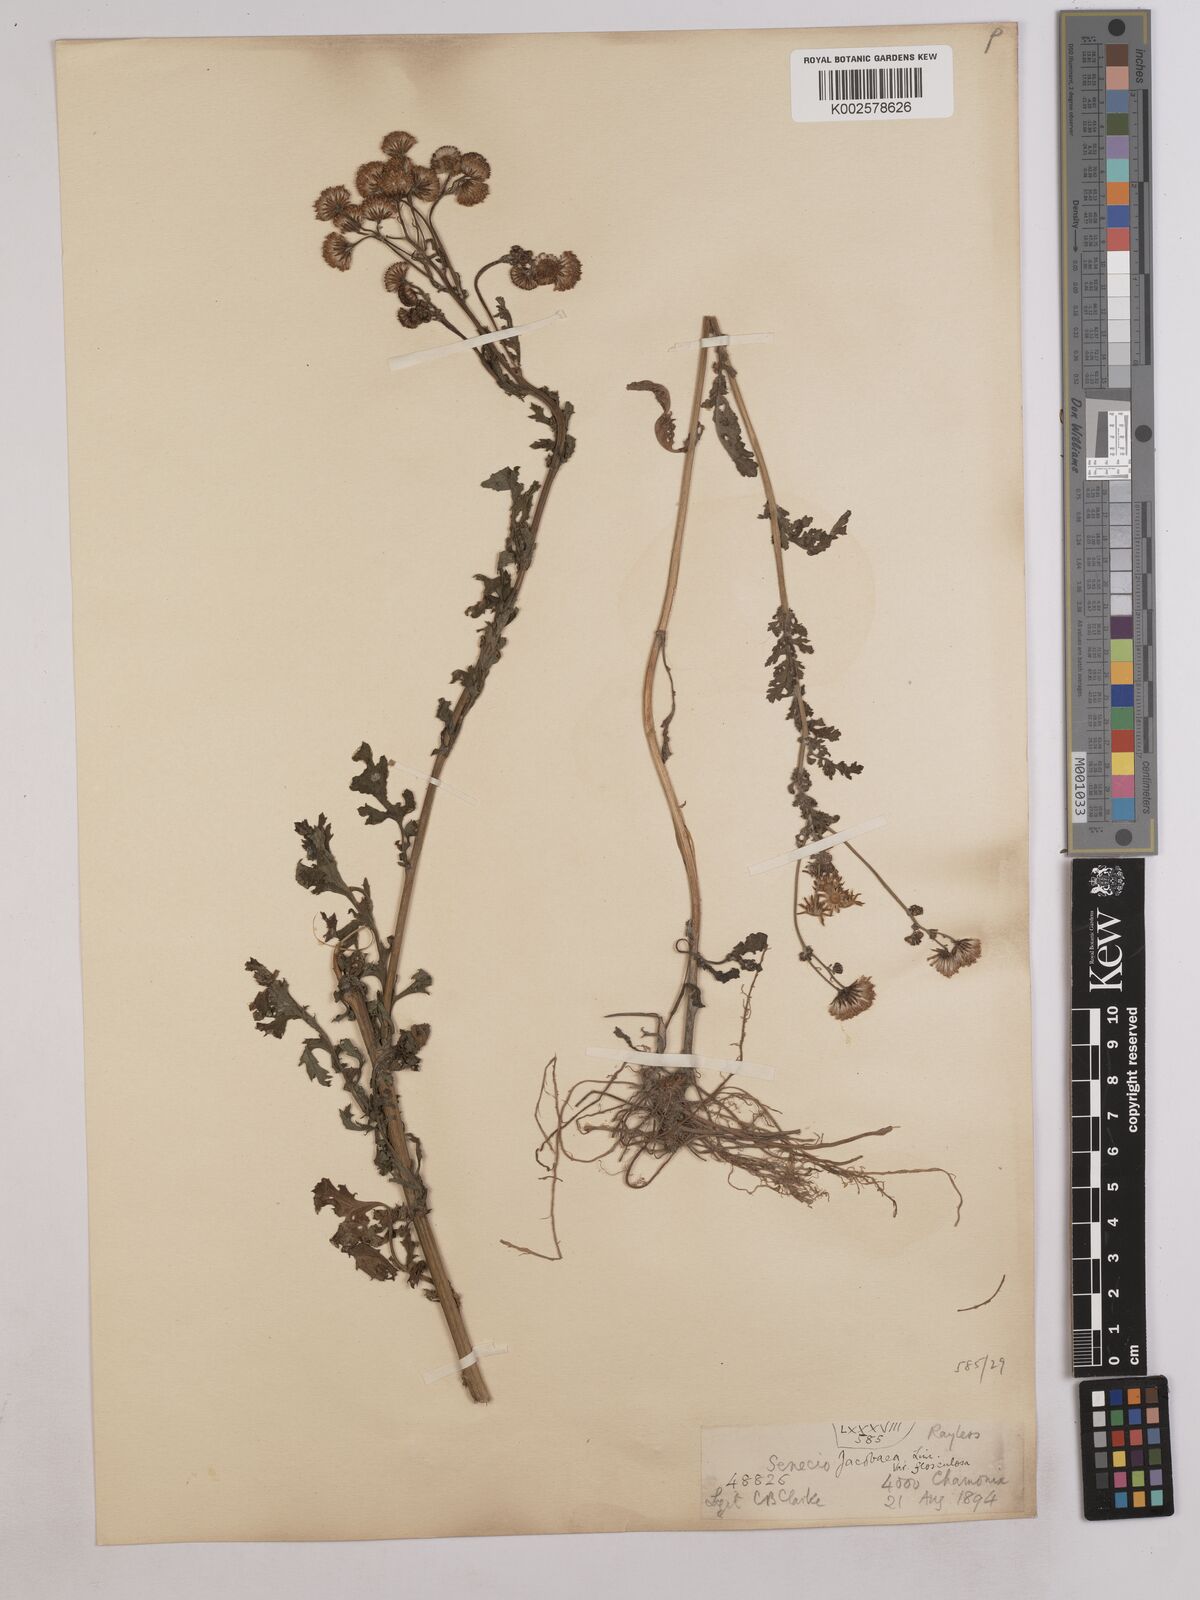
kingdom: Plantae
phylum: Tracheophyta
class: Magnoliopsida
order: Asterales
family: Asteraceae
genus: Jacobaea
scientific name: Jacobaea vulgaris
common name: Stinking willie
